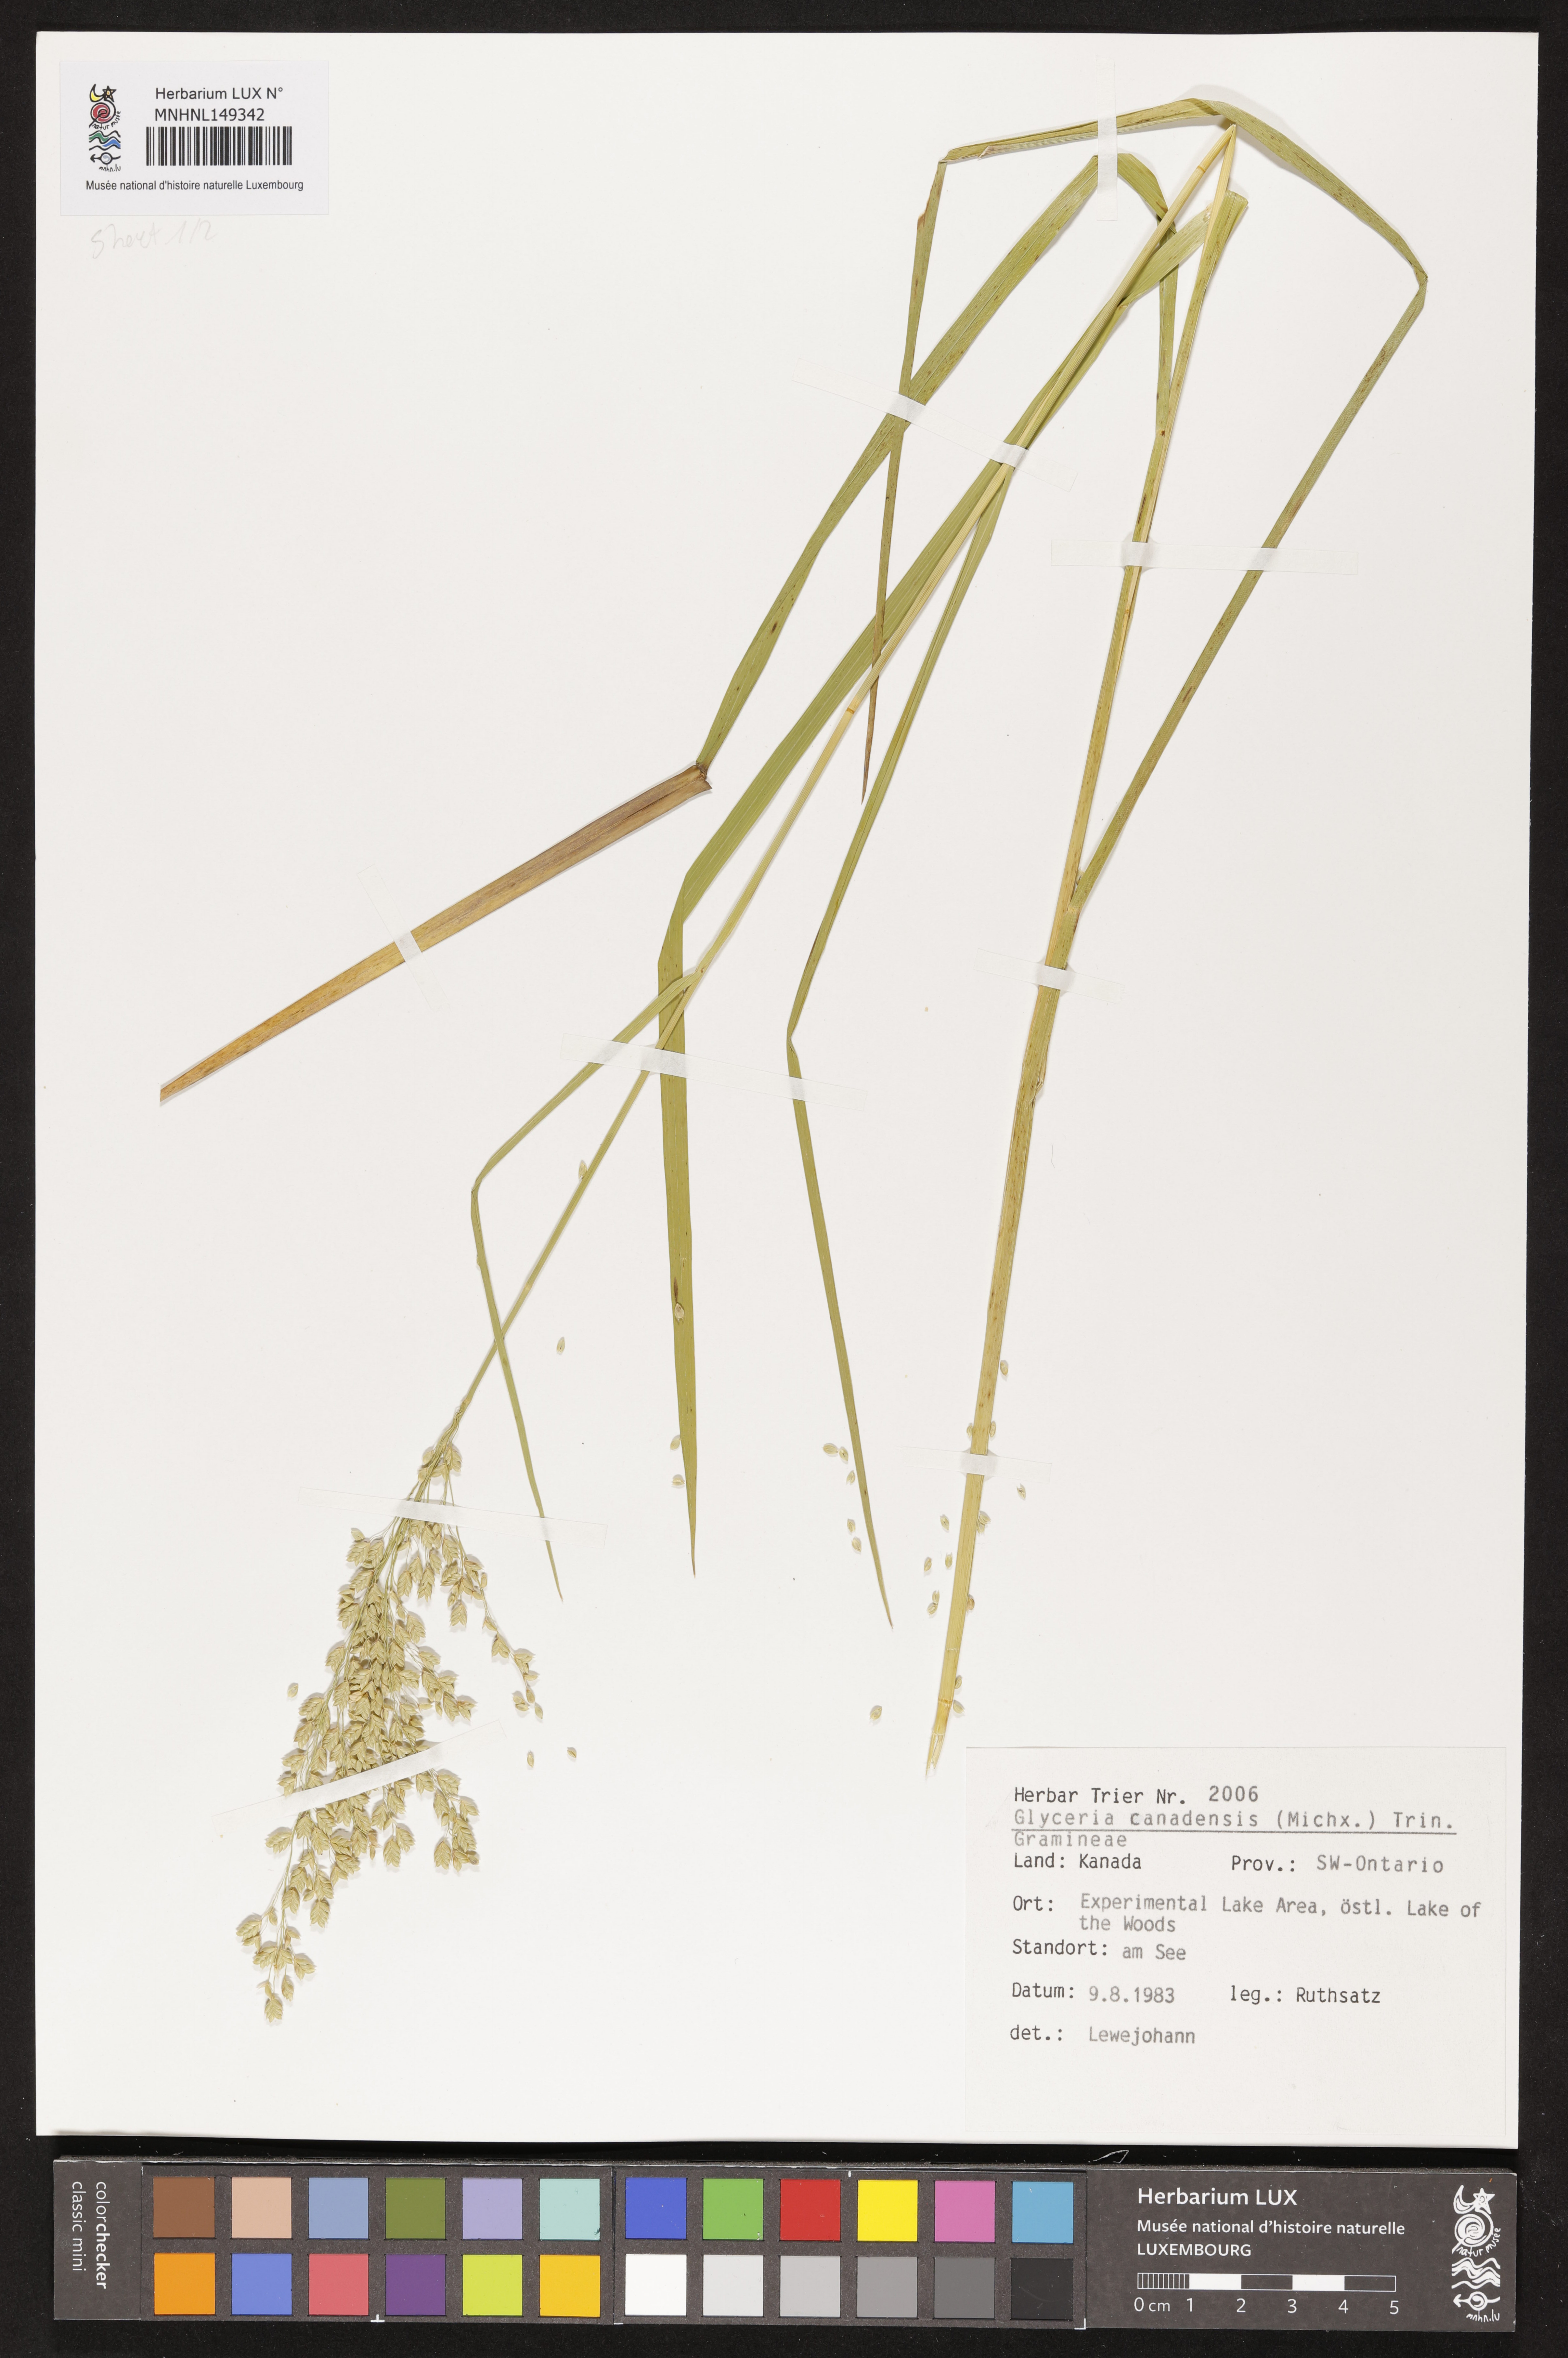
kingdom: Plantae
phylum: Tracheophyta
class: Liliopsida
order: Poales
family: Poaceae
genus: Glyceria
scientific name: Glyceria canadensis
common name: Canada mannagrass
